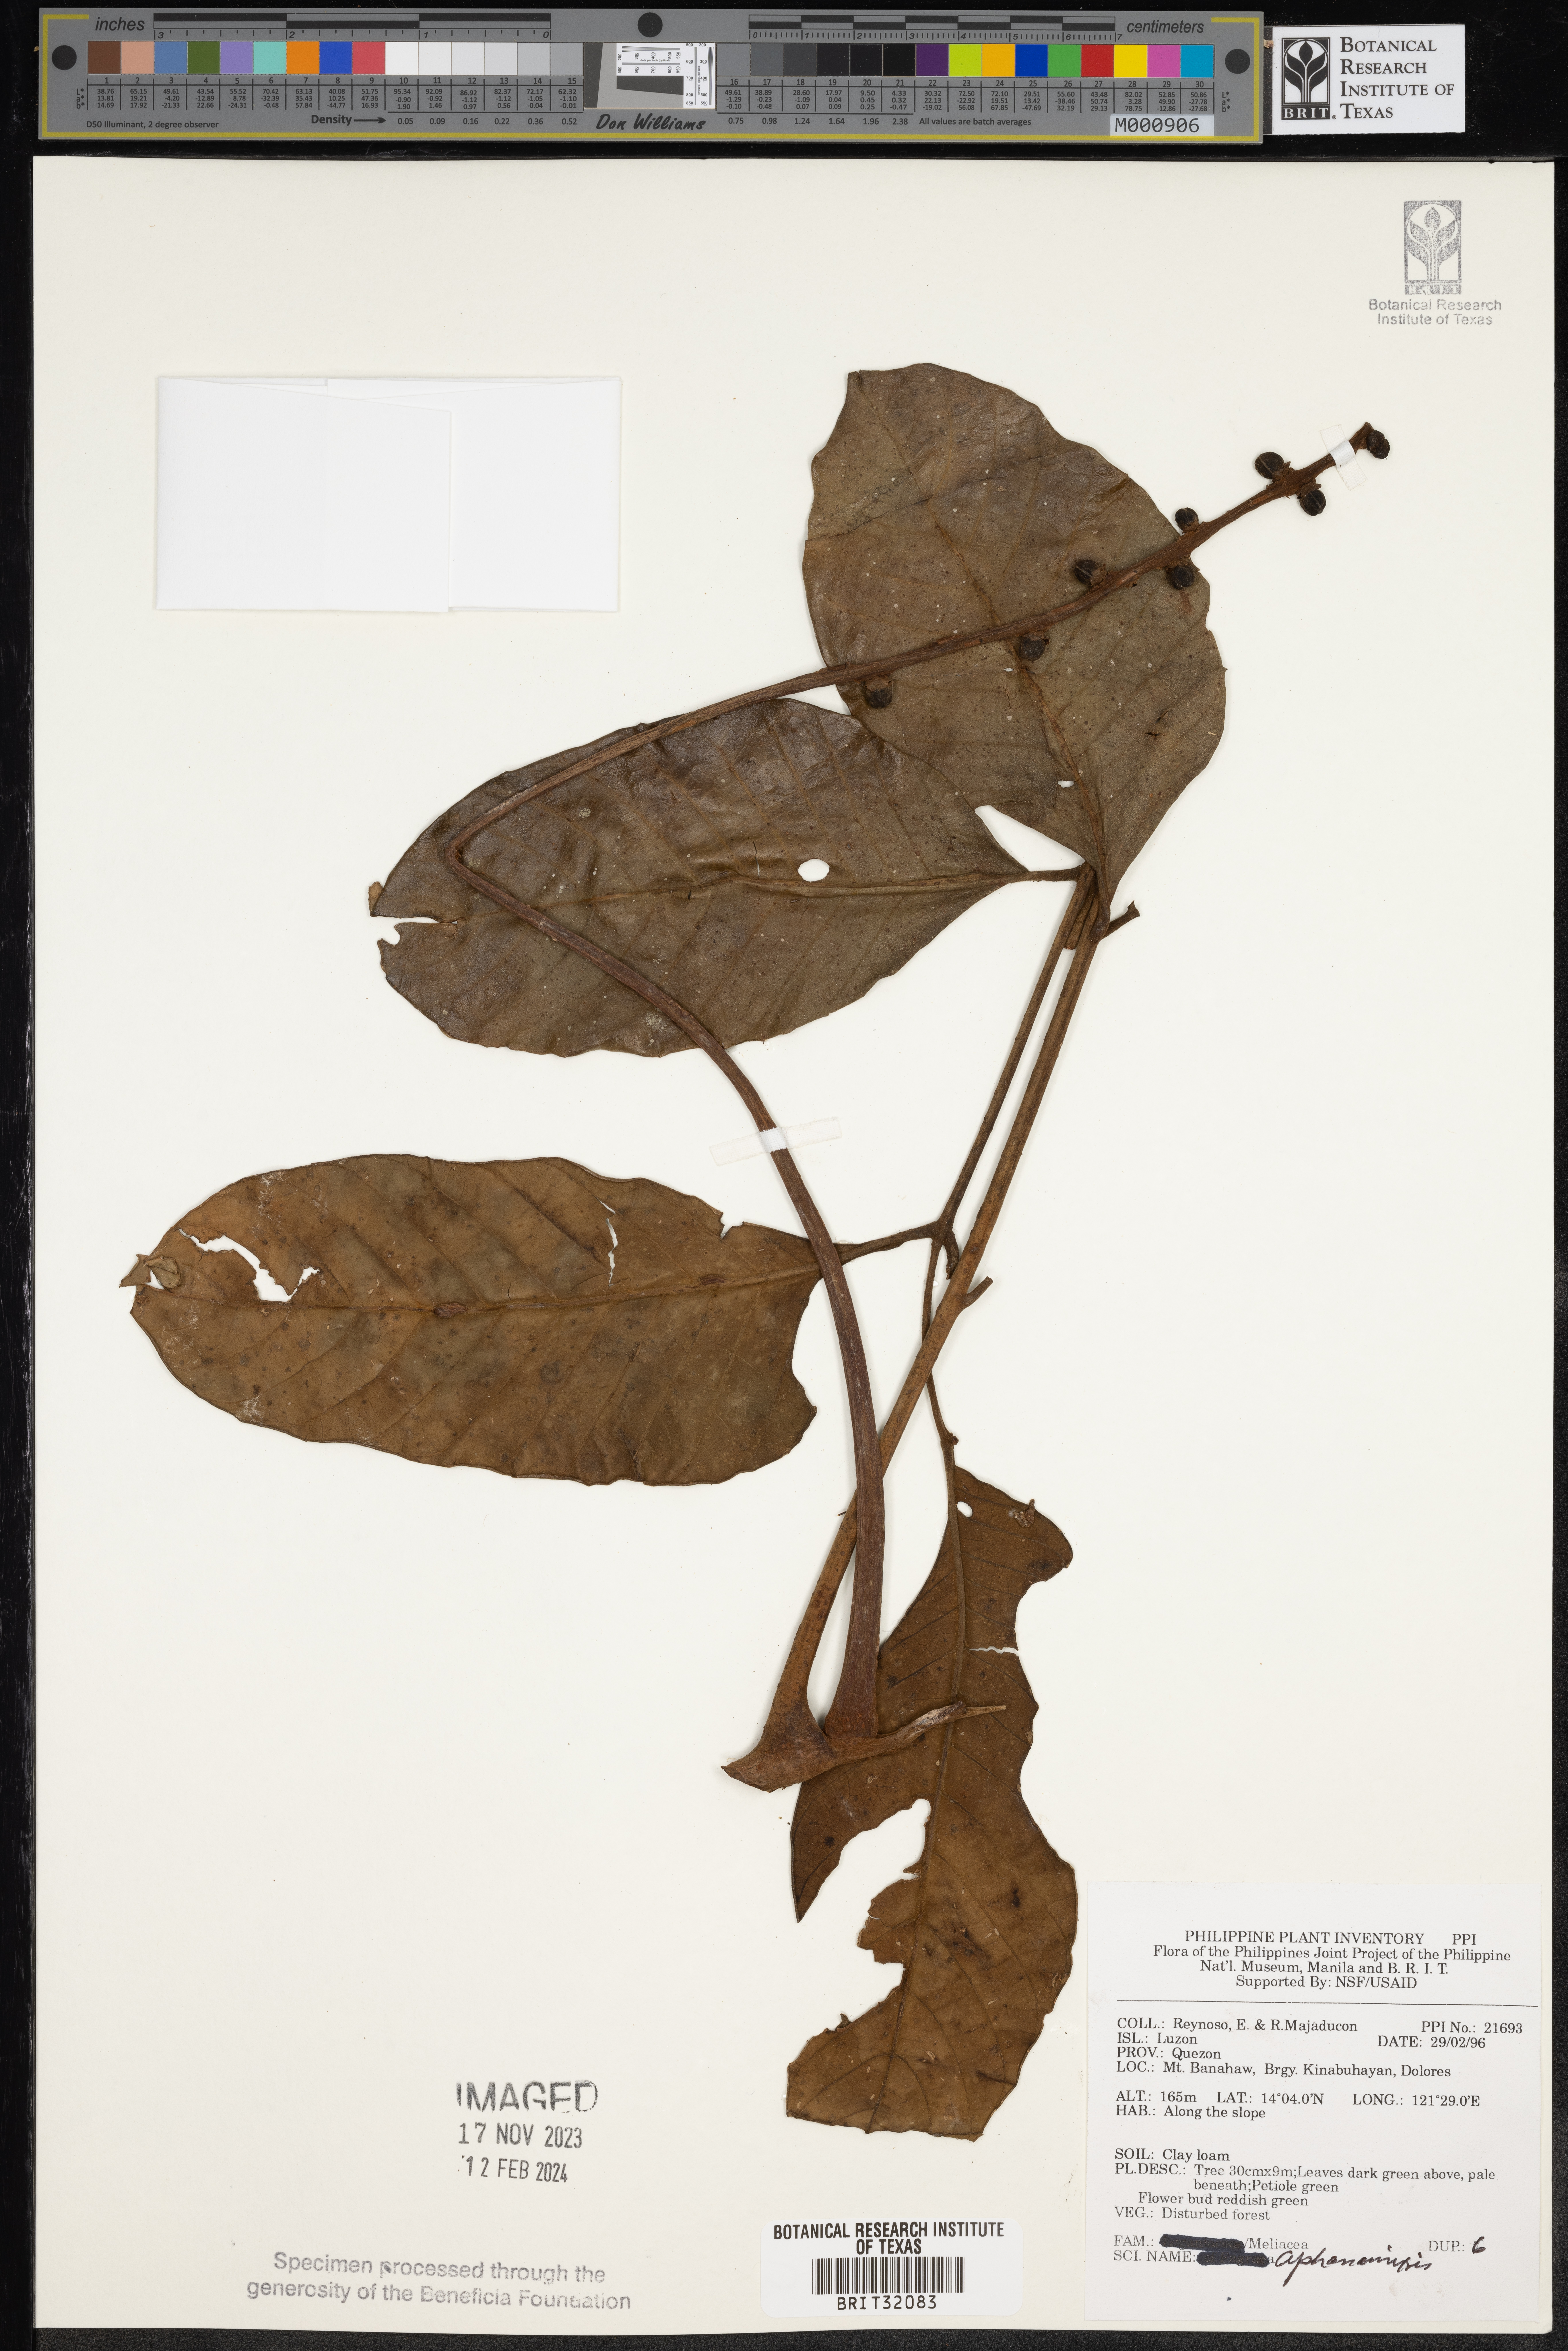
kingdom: Plantae
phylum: Tracheophyta
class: Magnoliopsida
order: Sapindales
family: Meliaceae
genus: Aphanamixis
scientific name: Aphanamixis
